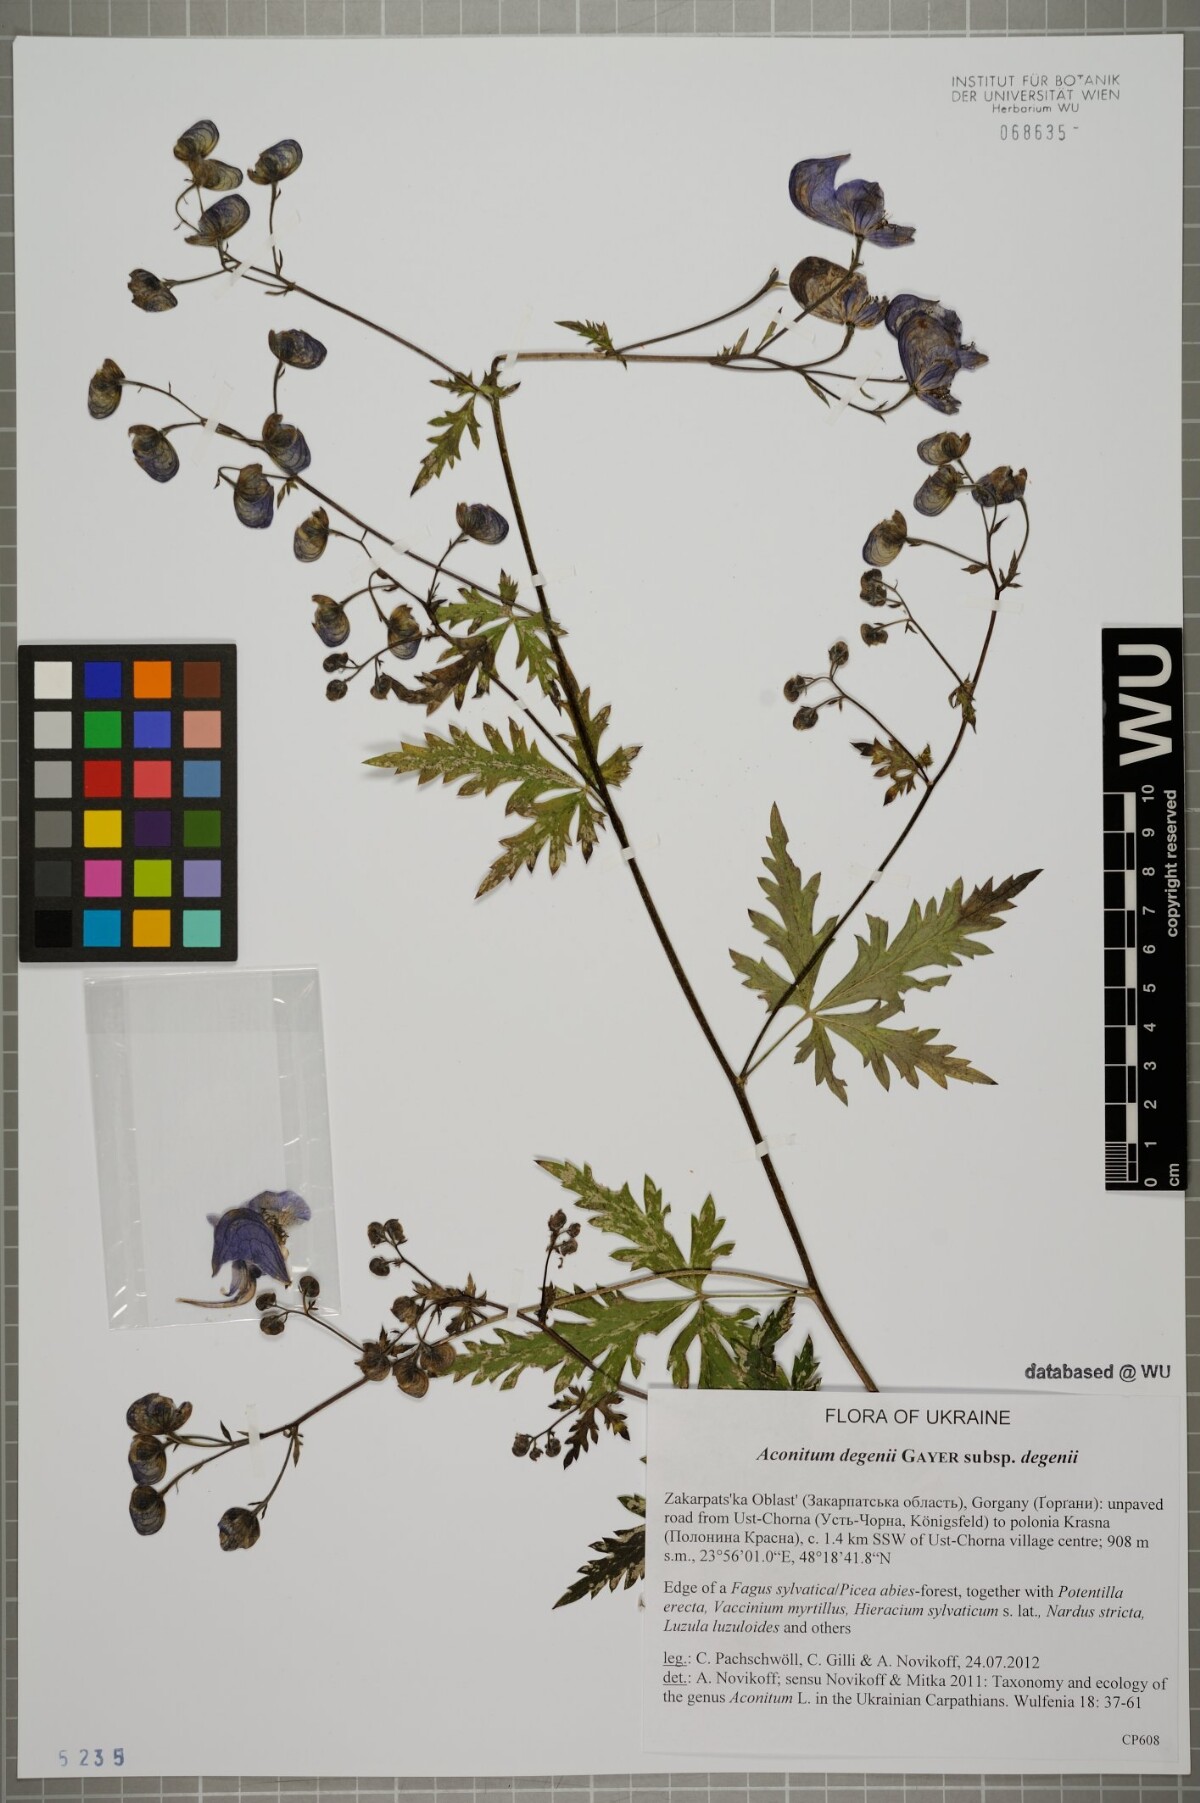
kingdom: Plantae
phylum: Tracheophyta
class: Magnoliopsida
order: Ranunculales
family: Ranunculaceae
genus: Aconitum
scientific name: Aconitum degenii
